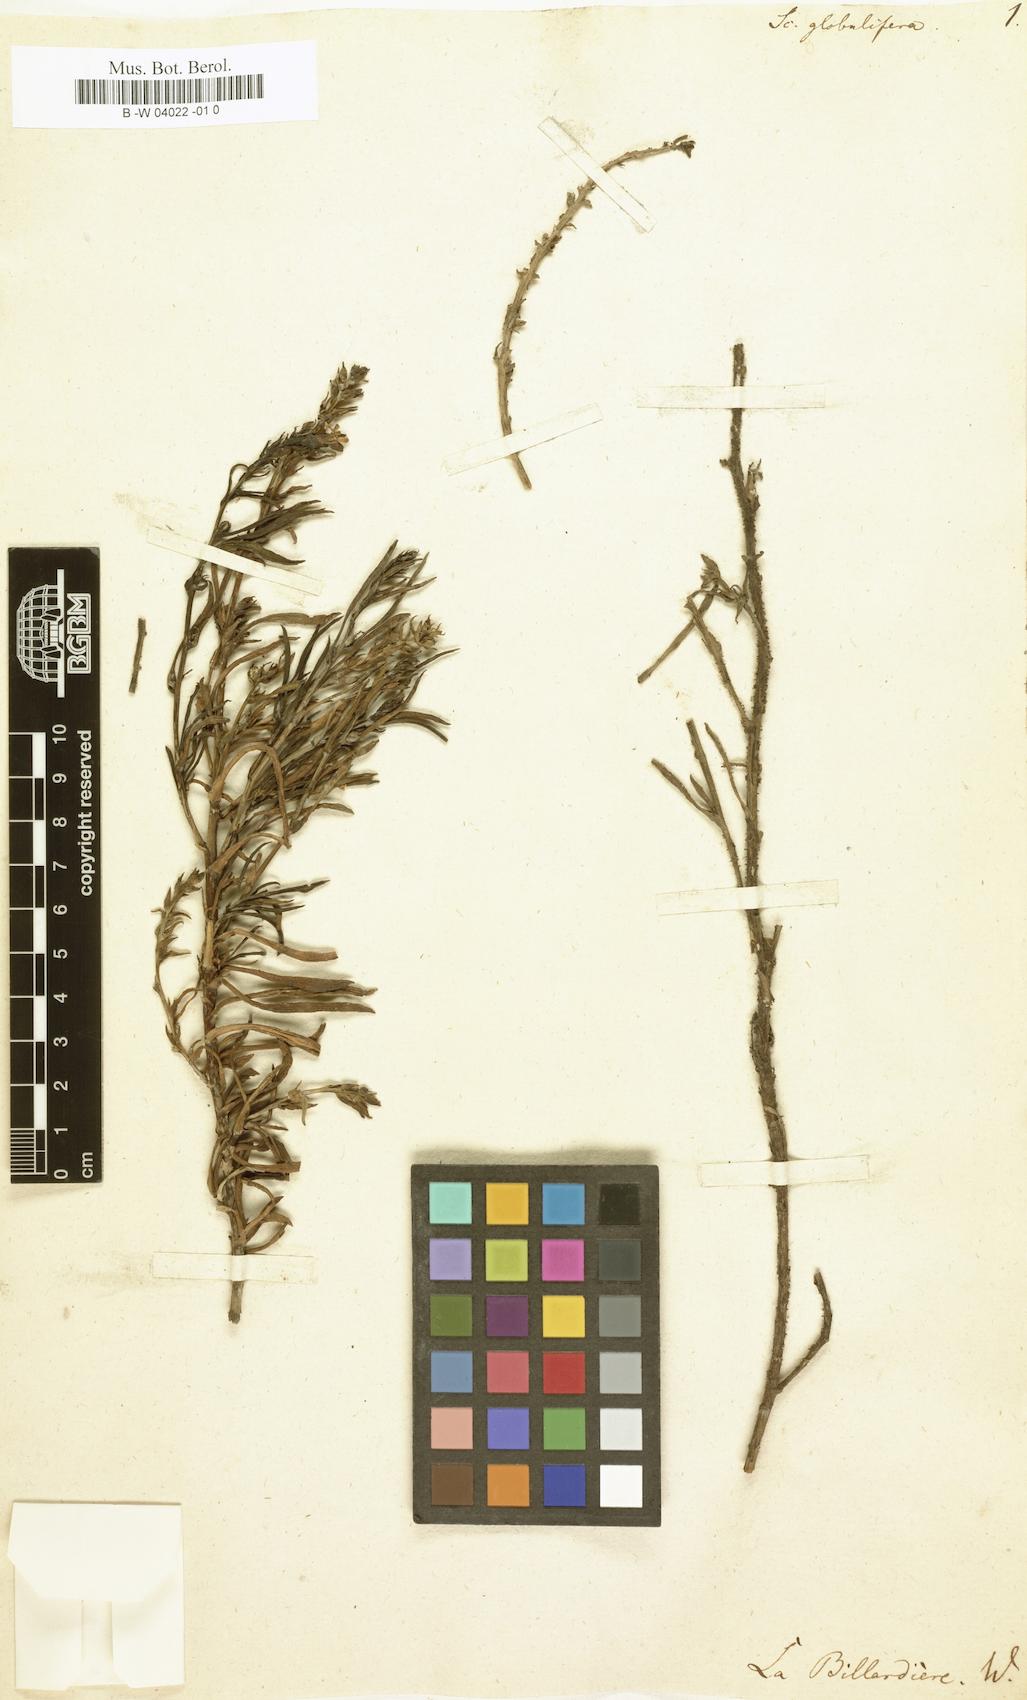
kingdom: Plantae
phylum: Tracheophyta
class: Magnoliopsida
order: Asterales
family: Goodeniaceae
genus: Scaevola
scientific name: Scaevola globulifera
